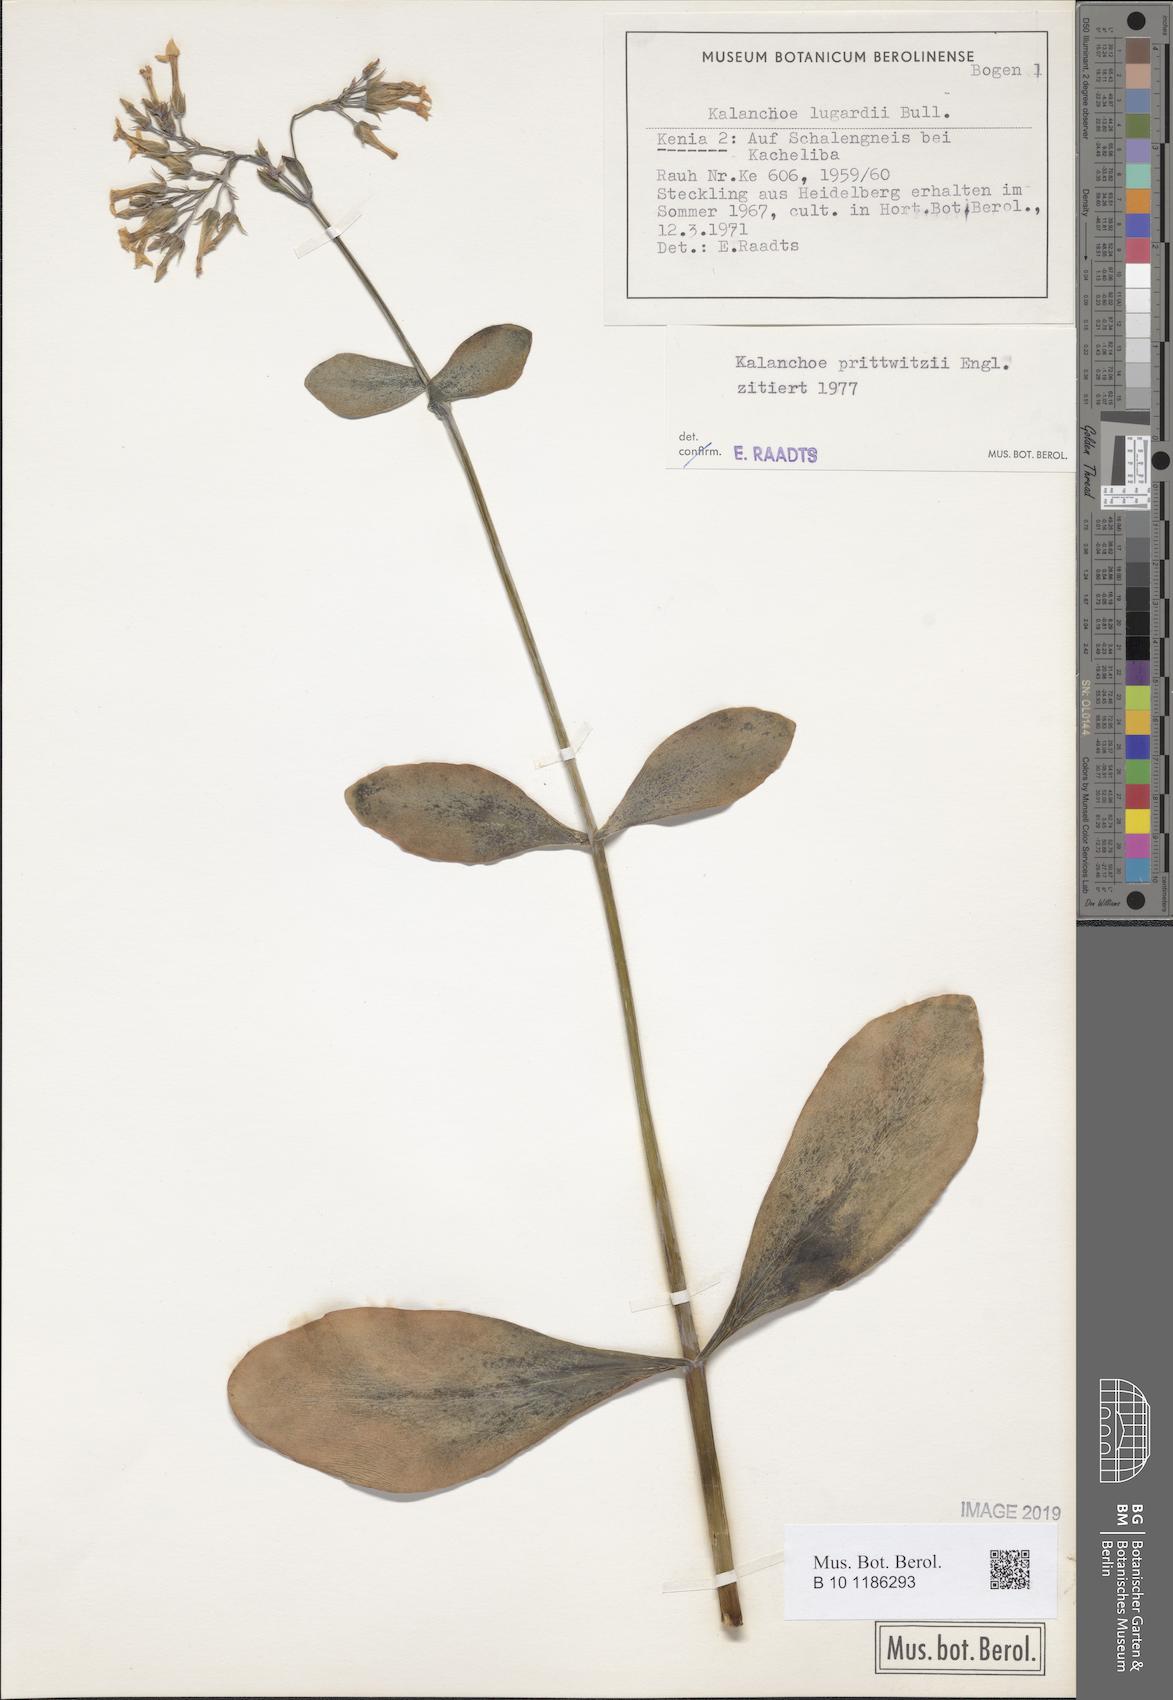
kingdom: Plantae
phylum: Tracheophyta
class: Magnoliopsida
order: Saxifragales
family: Crassulaceae
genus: Kalanchoe
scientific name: Kalanchoe prittwitzii
